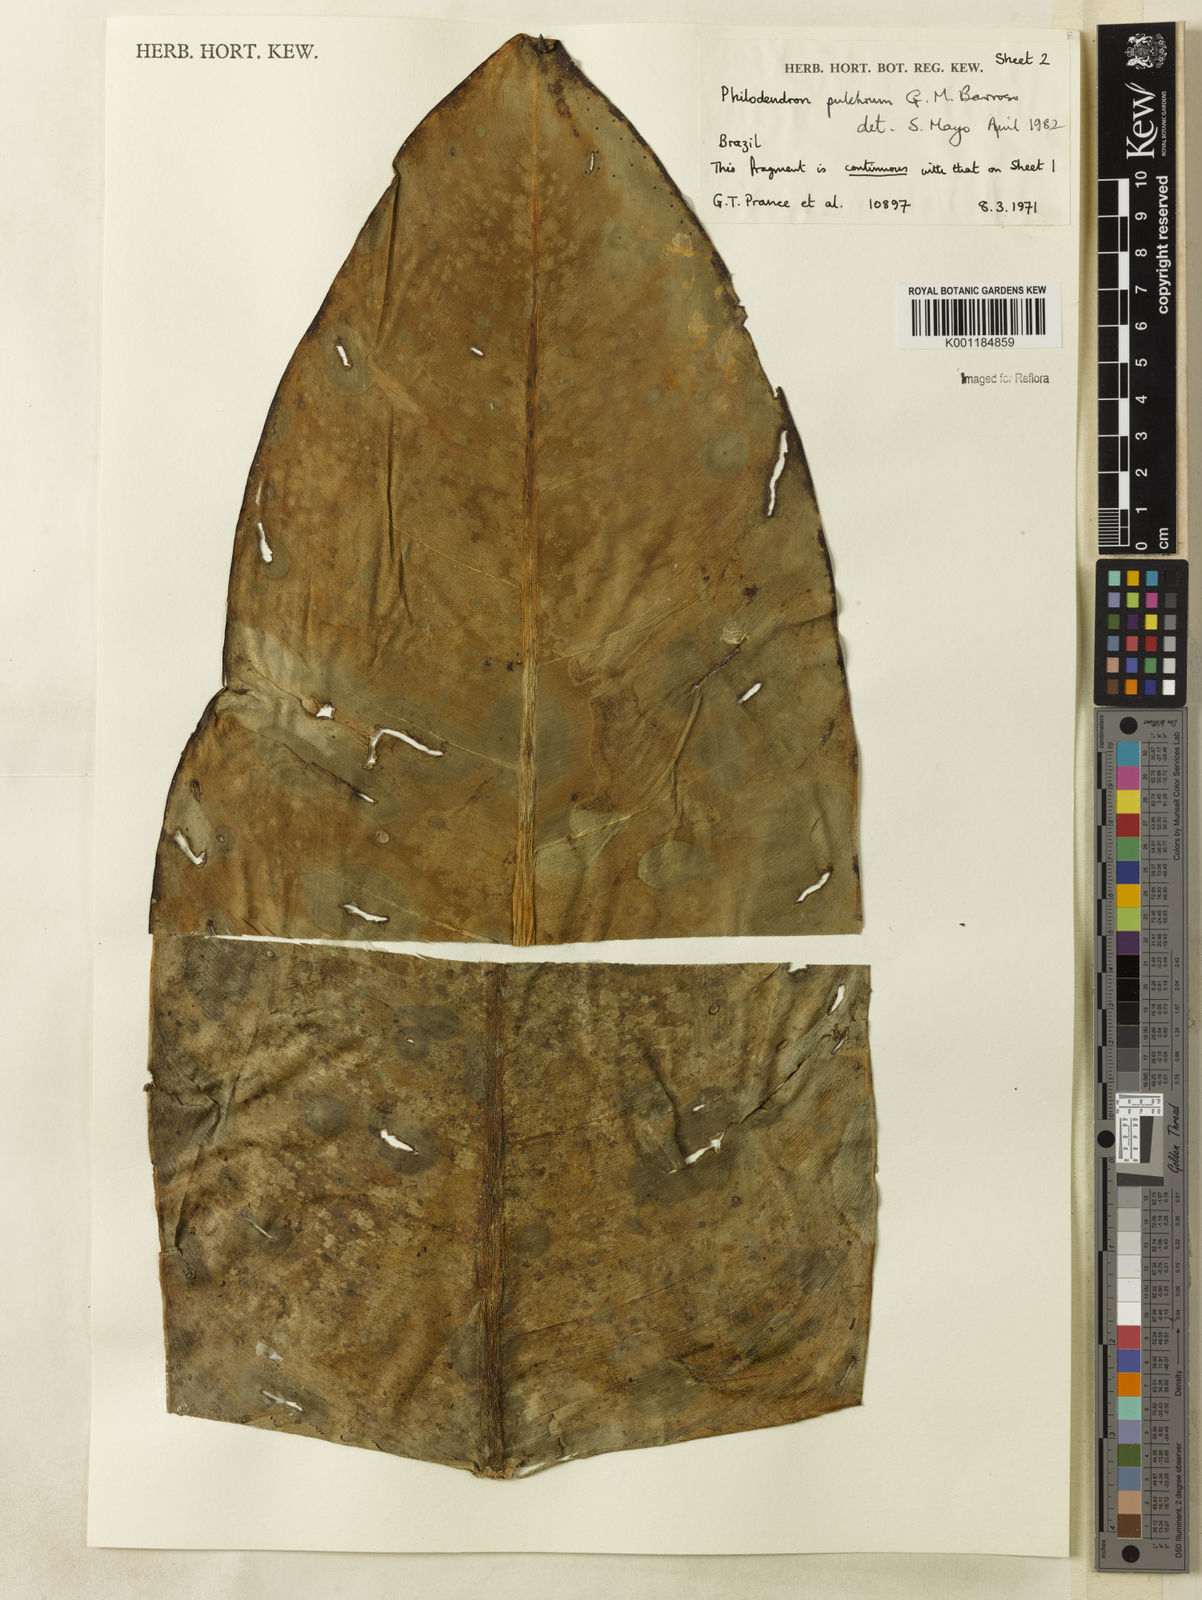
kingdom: Plantae
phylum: Tracheophyta
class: Liliopsida
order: Alismatales
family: Araceae
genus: Philodendron
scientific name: Philodendron pulchrum
